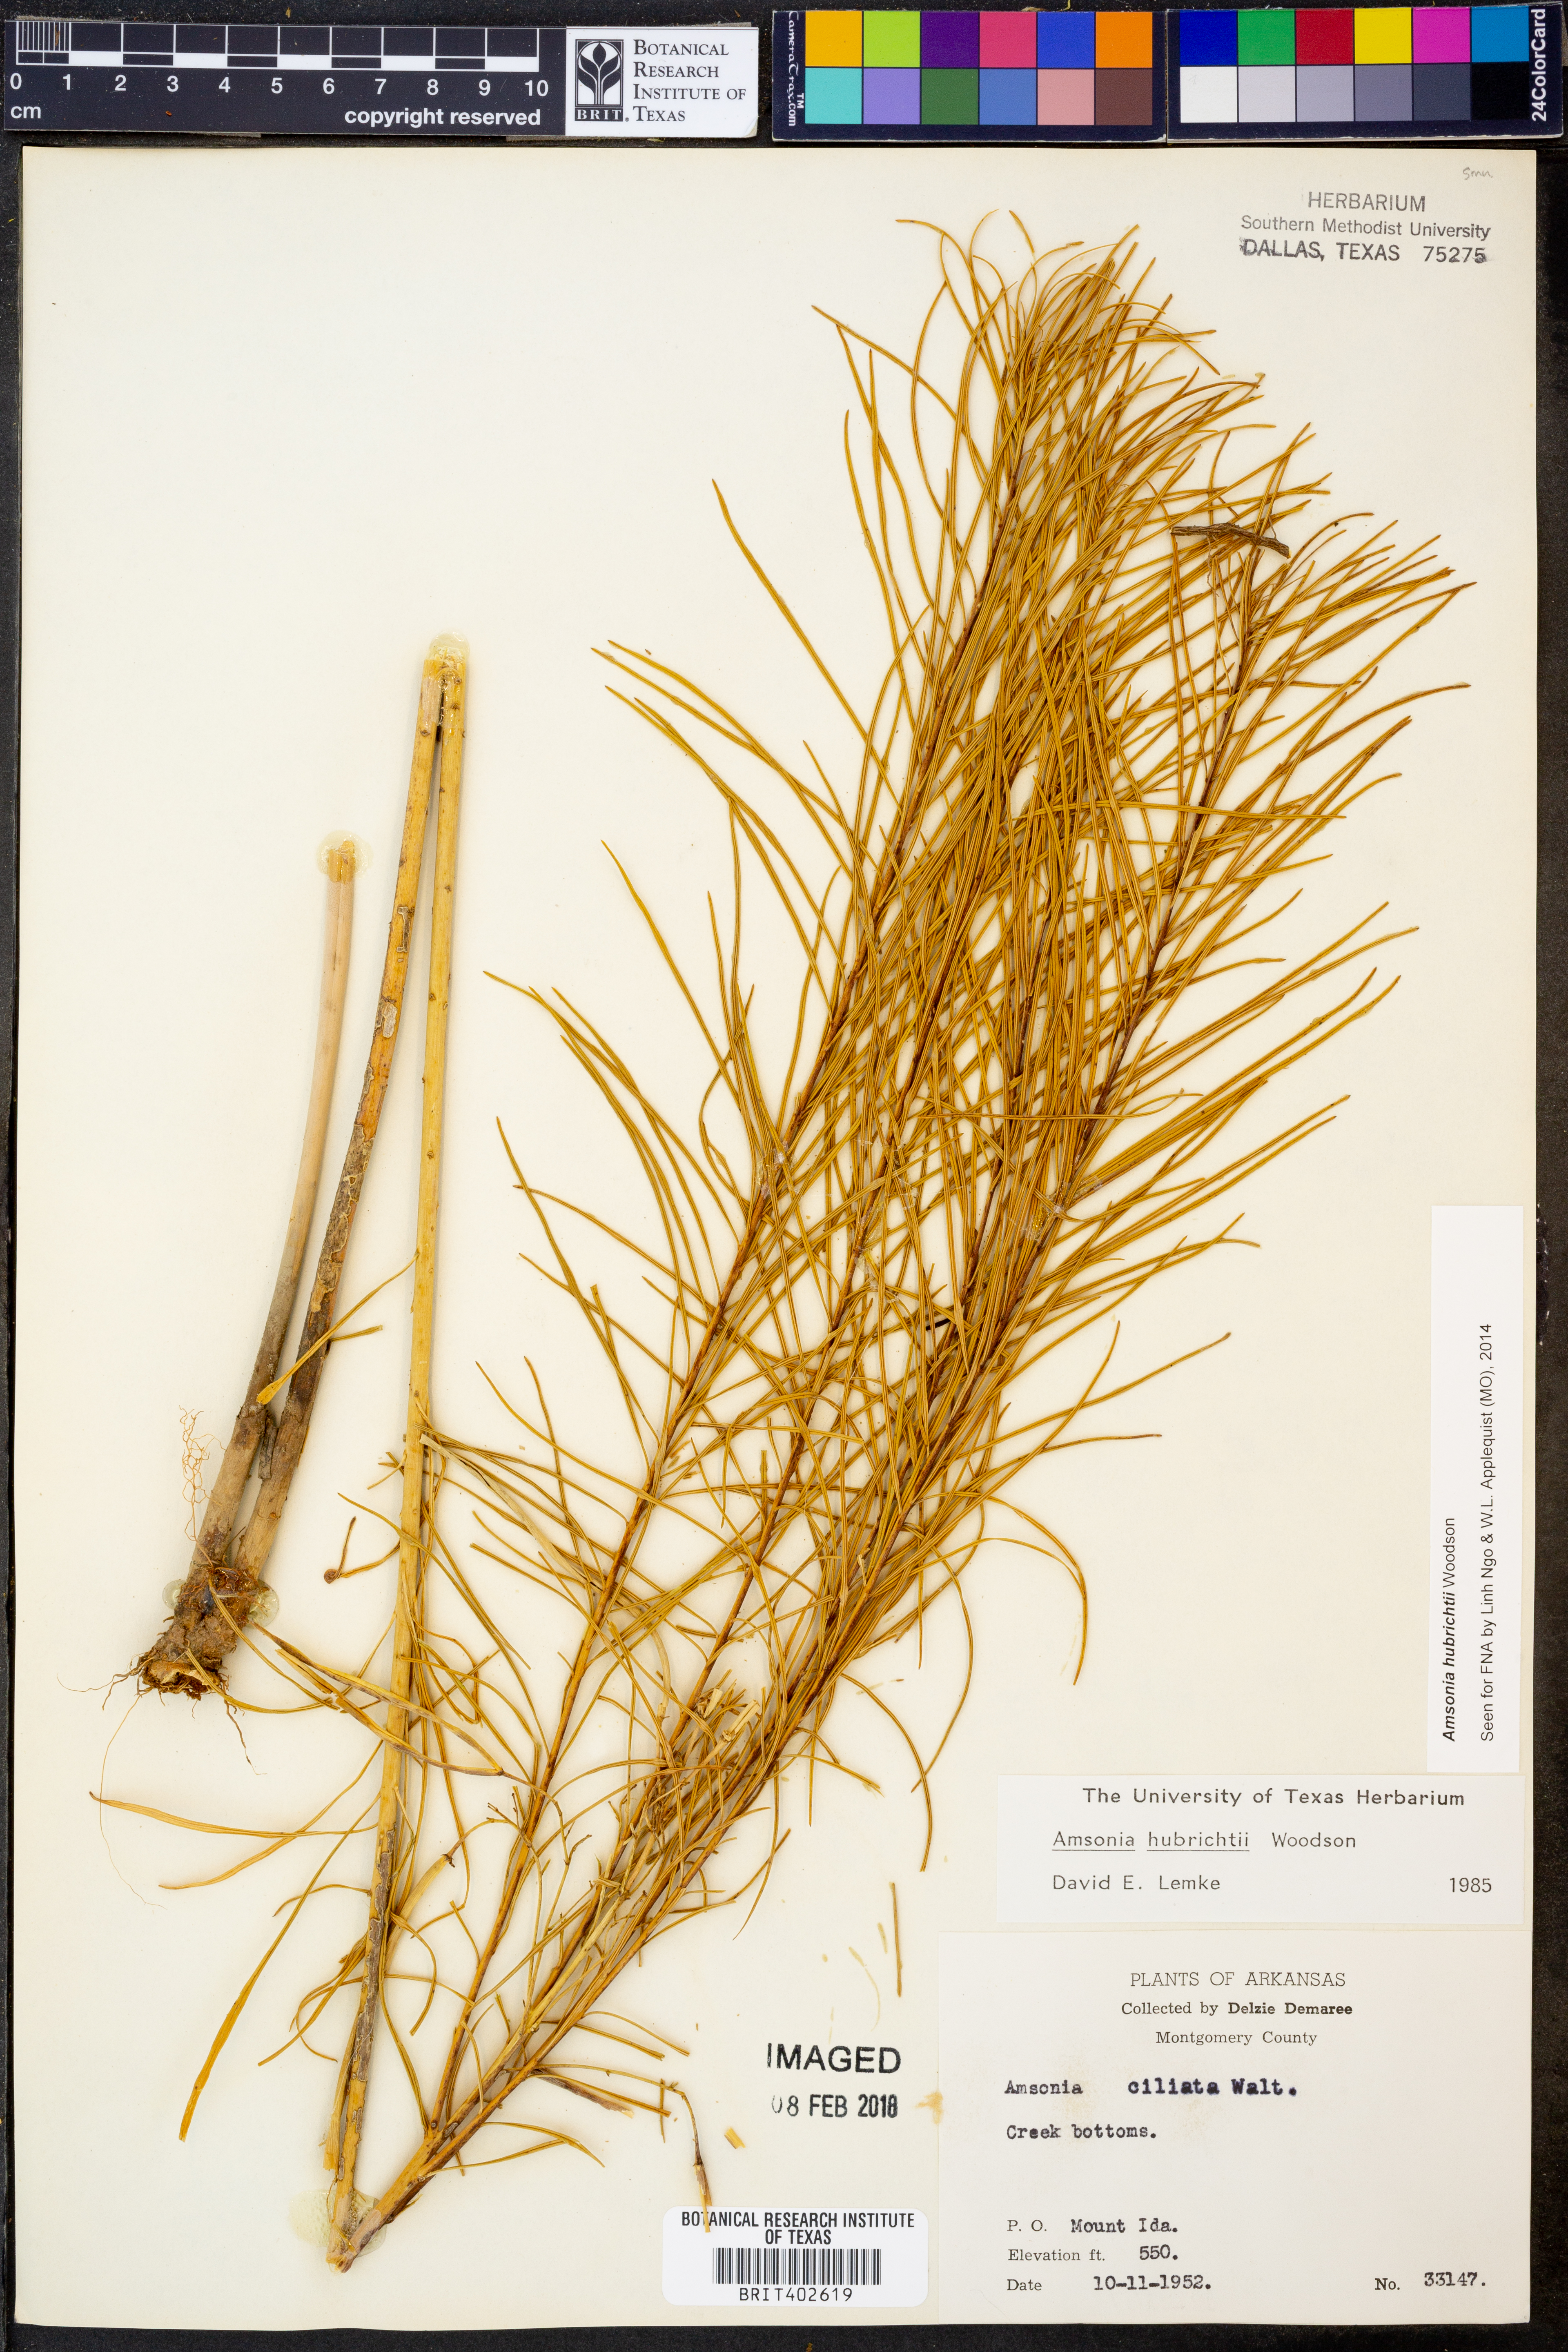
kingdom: Plantae
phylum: Tracheophyta
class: Magnoliopsida
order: Gentianales
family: Apocynaceae
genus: Amsonia
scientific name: Amsonia hubrichtii
